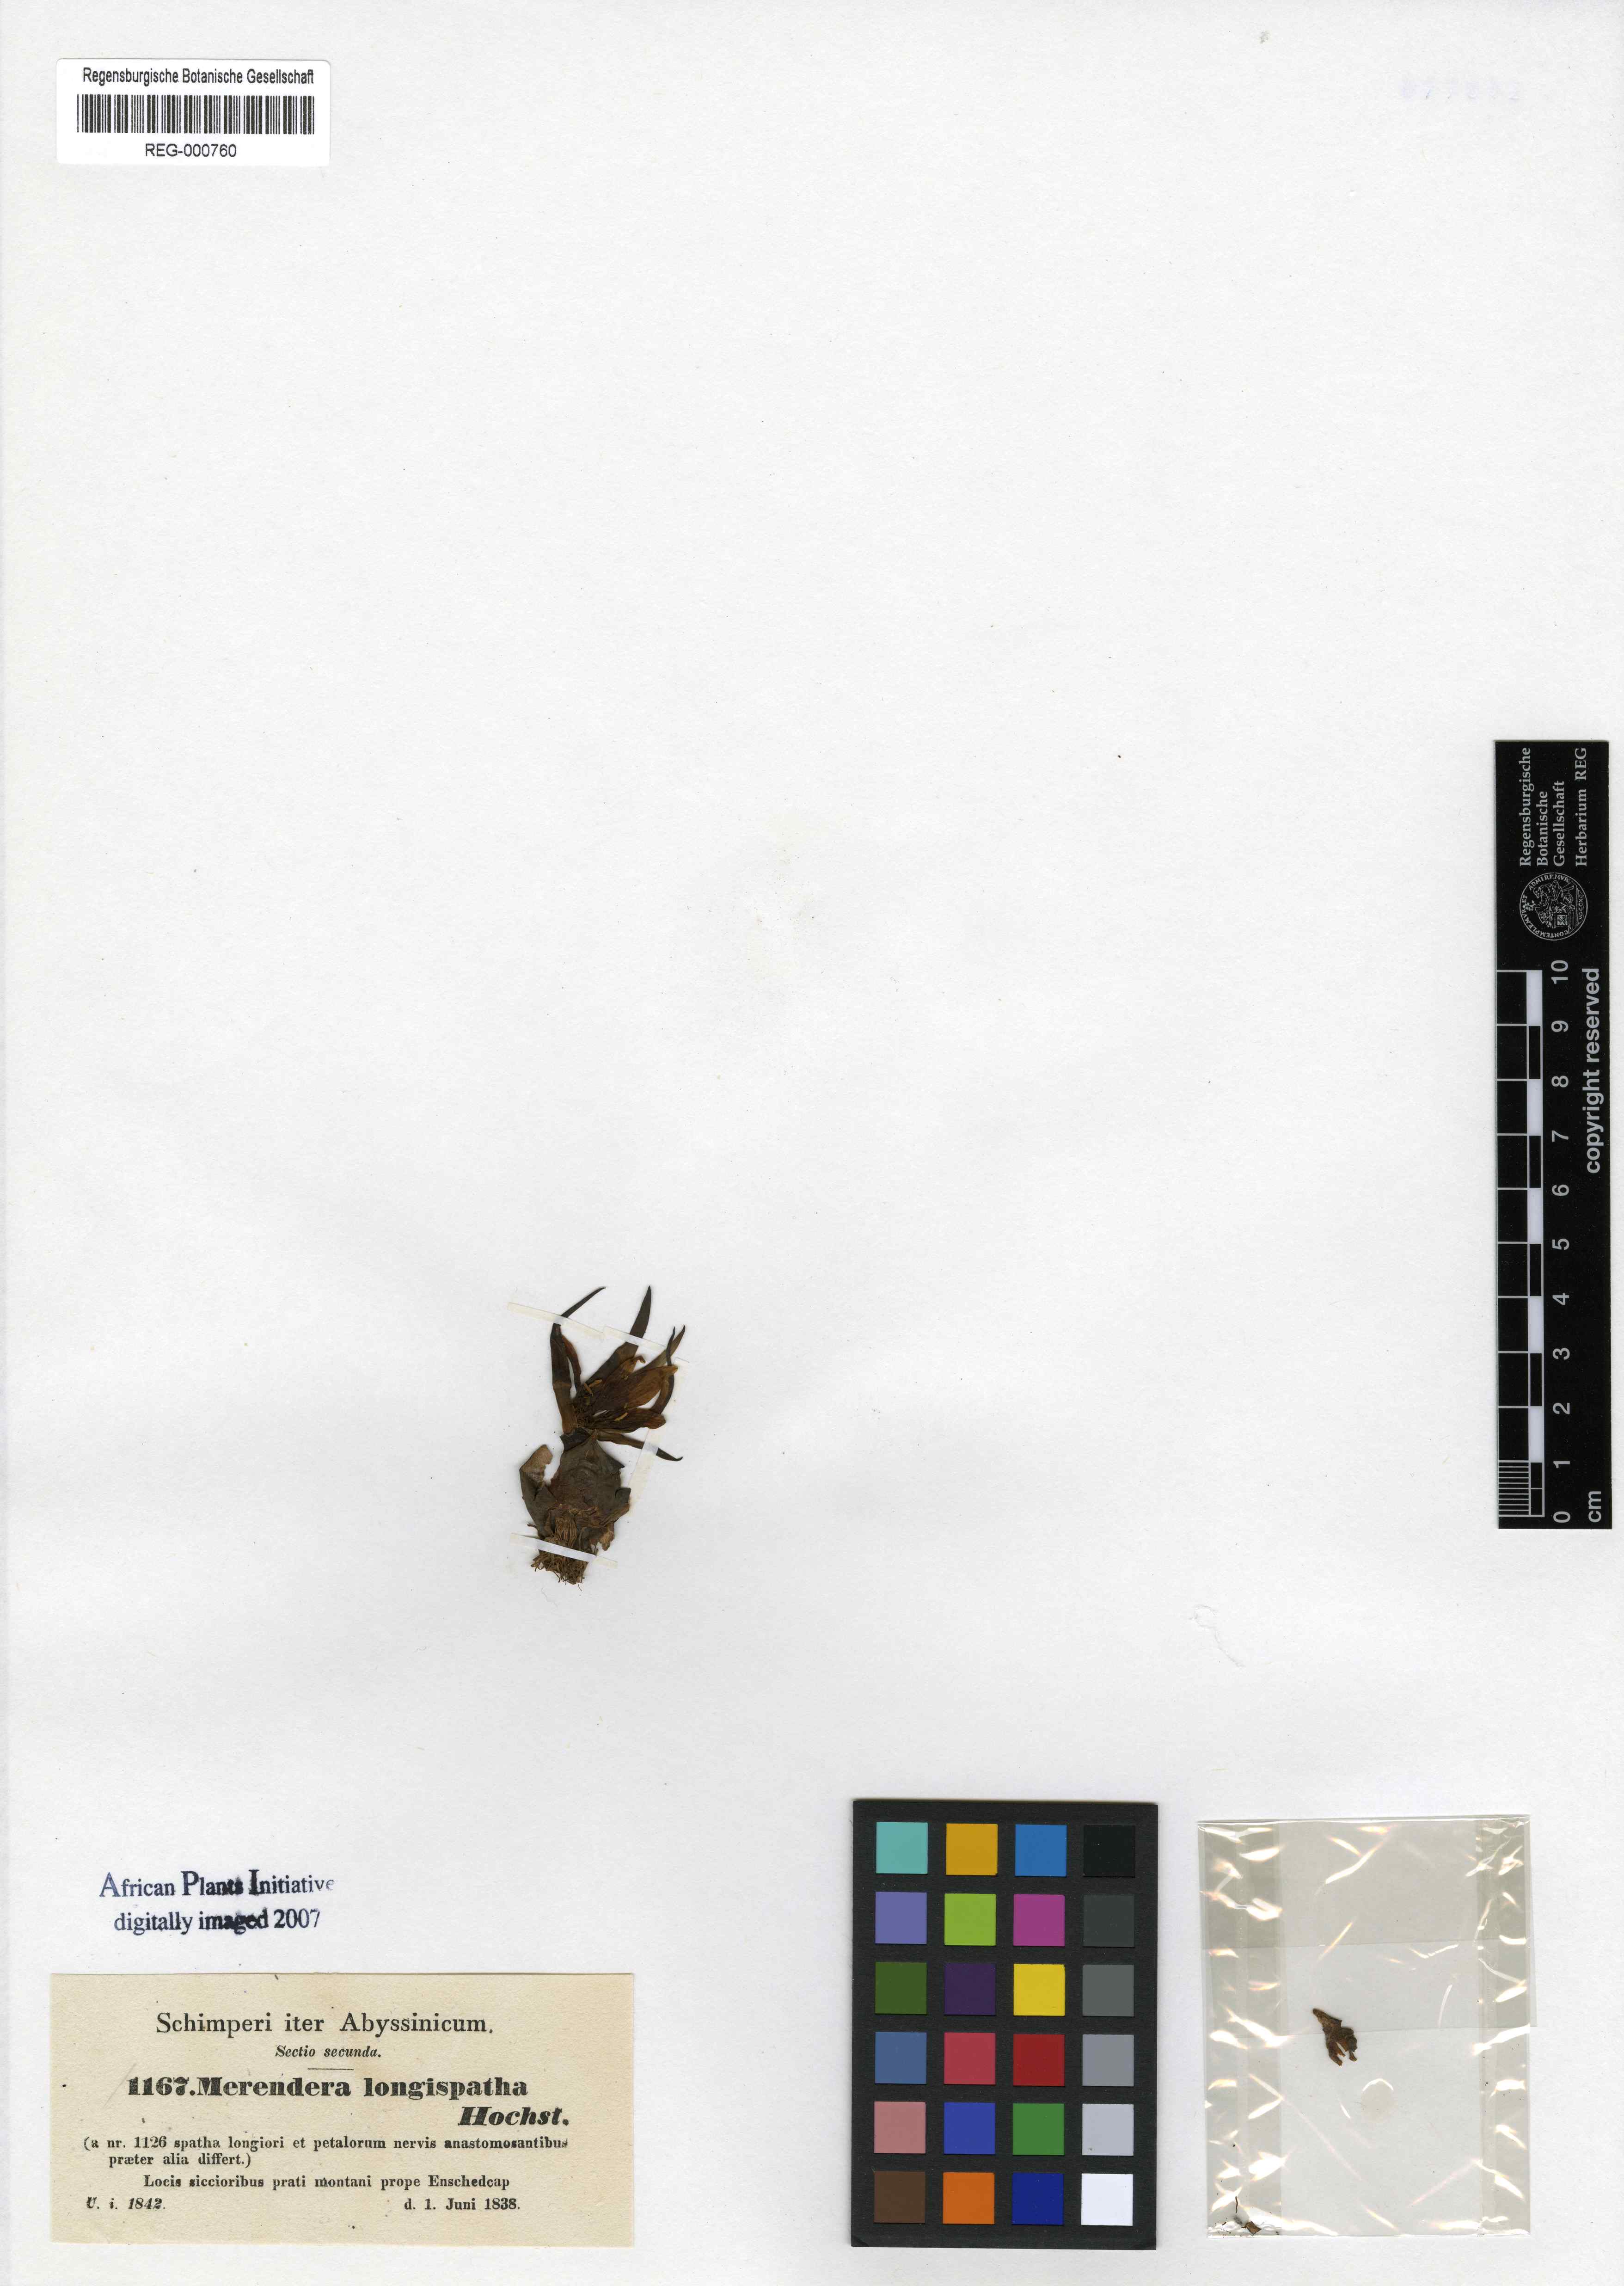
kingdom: Plantae
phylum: Tracheophyta
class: Liliopsida
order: Liliales
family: Colchicaceae
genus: Colchicum
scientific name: Colchicum schimperianum
